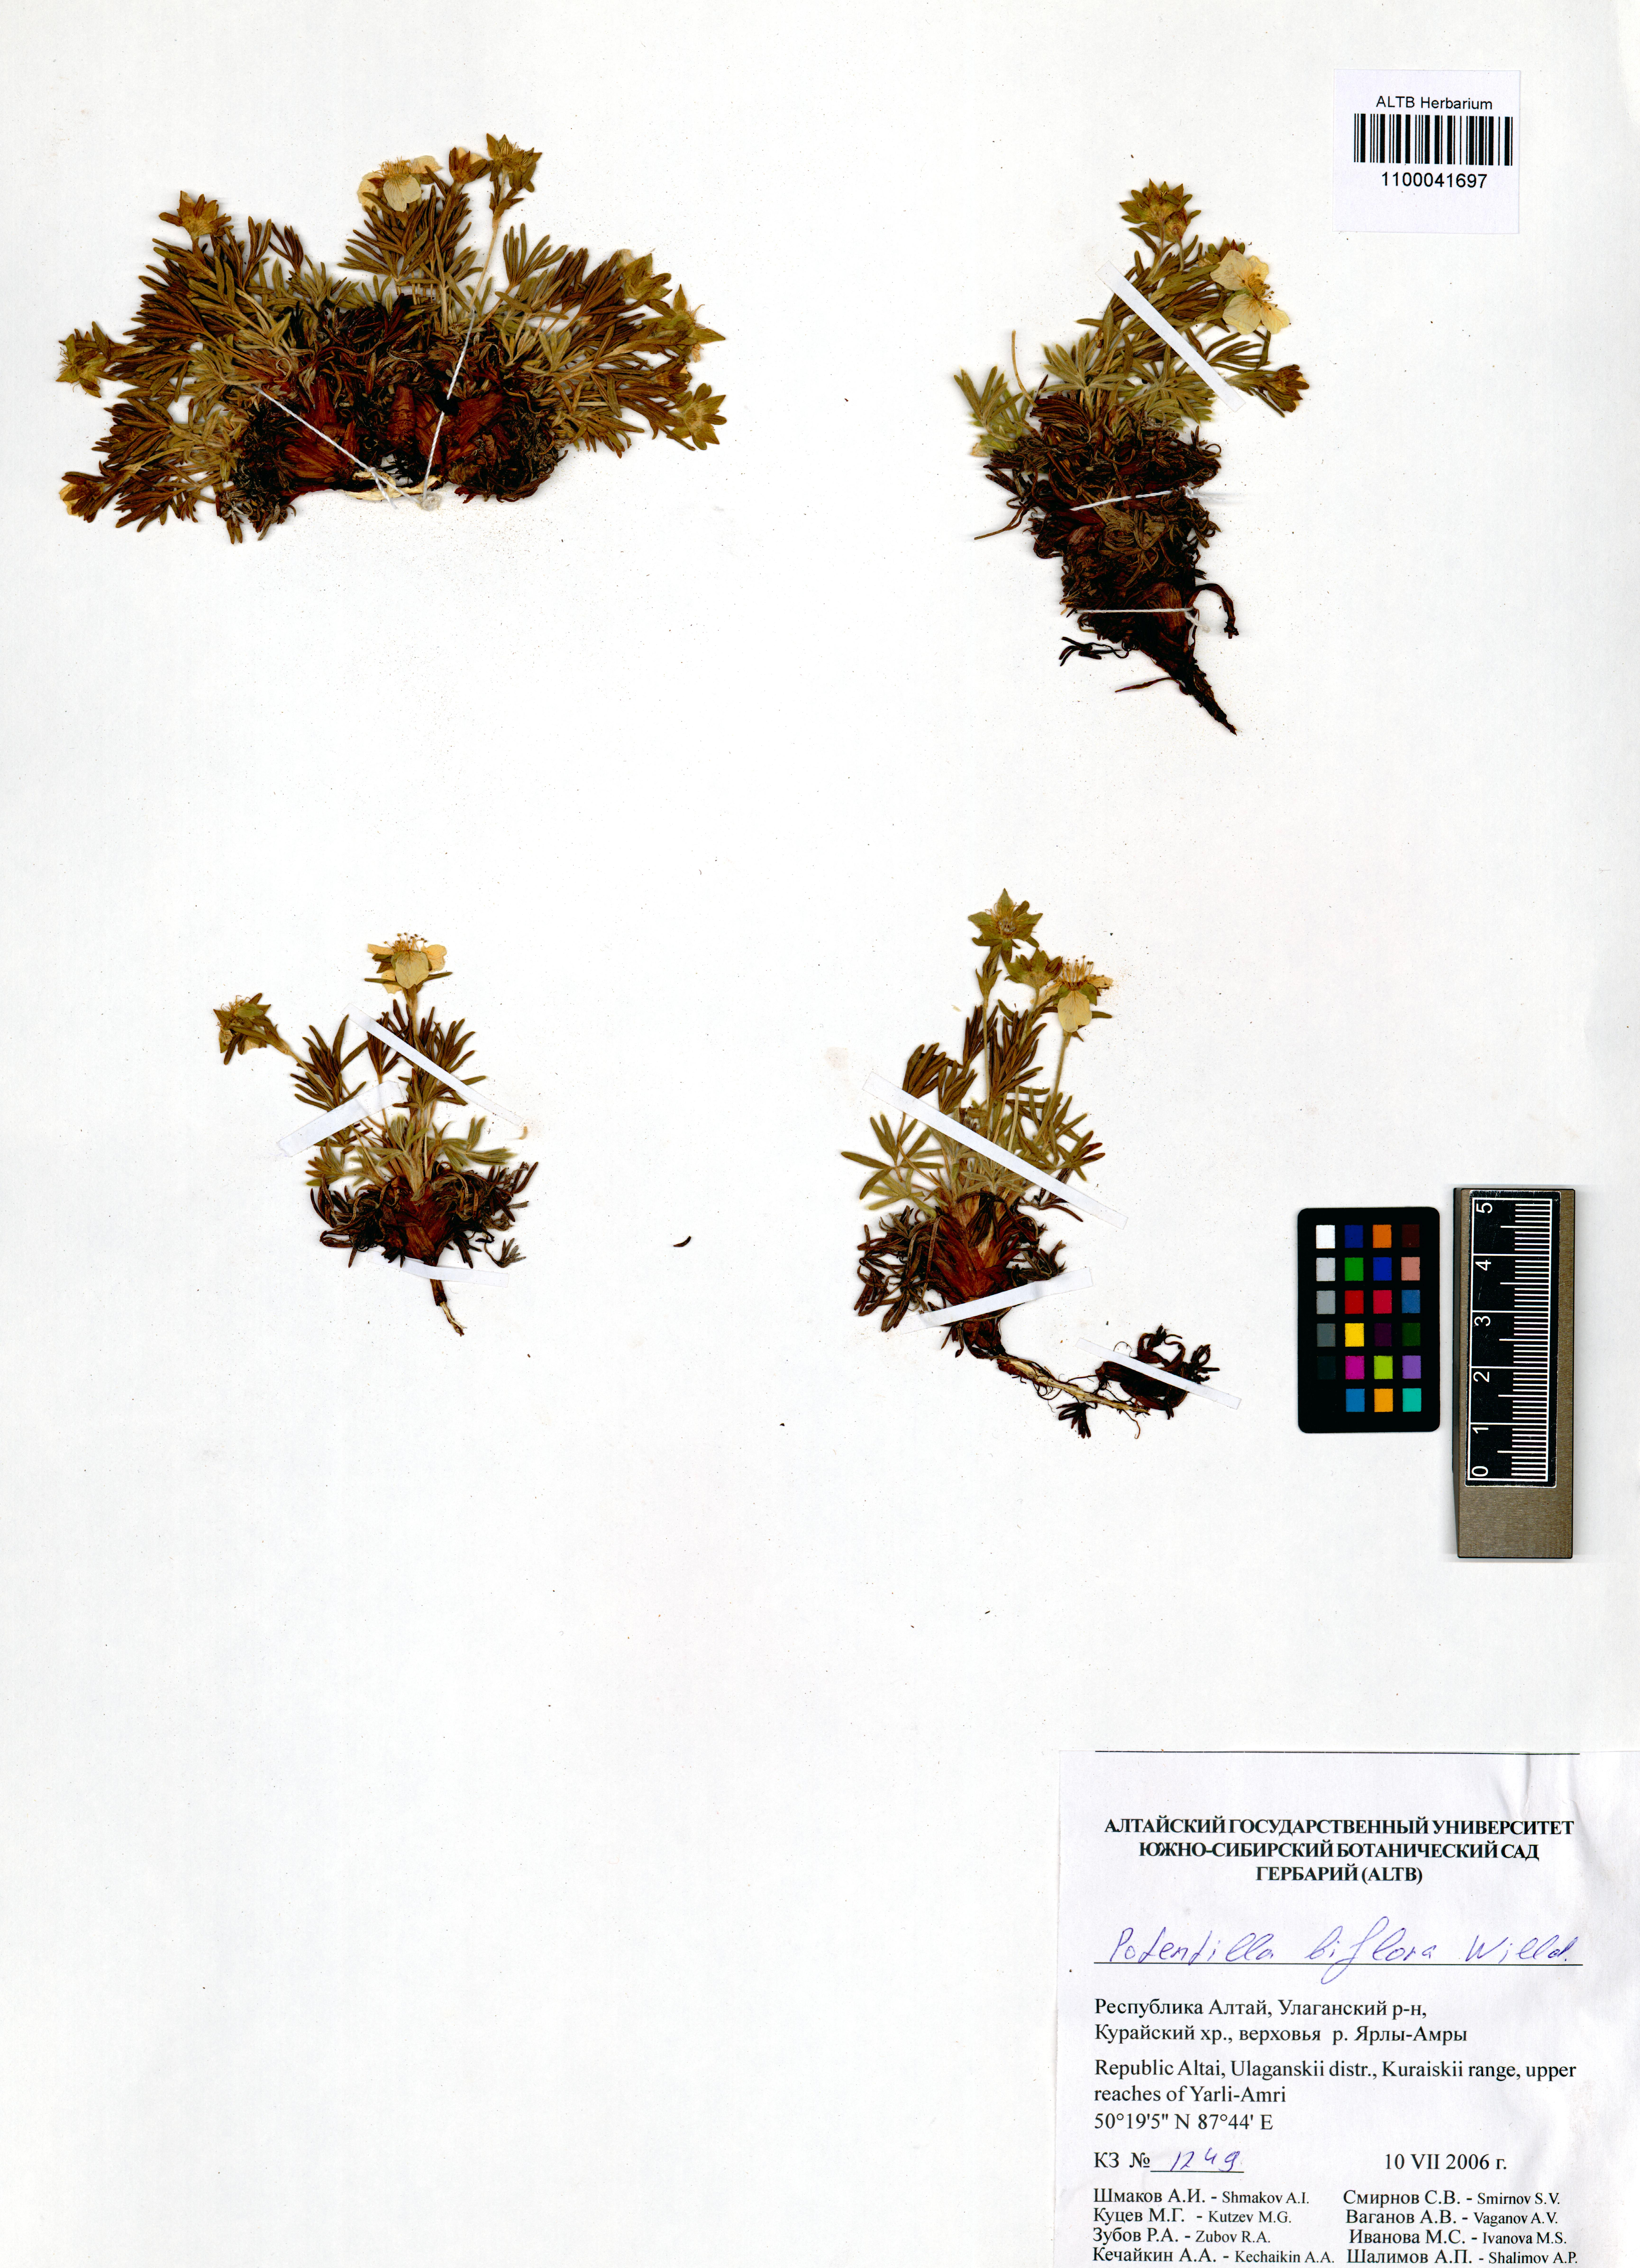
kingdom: Plantae
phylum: Tracheophyta
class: Magnoliopsida
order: Rosales
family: Rosaceae
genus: Potentilla
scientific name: Potentilla biflora
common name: Two-flowered cinquefoil
